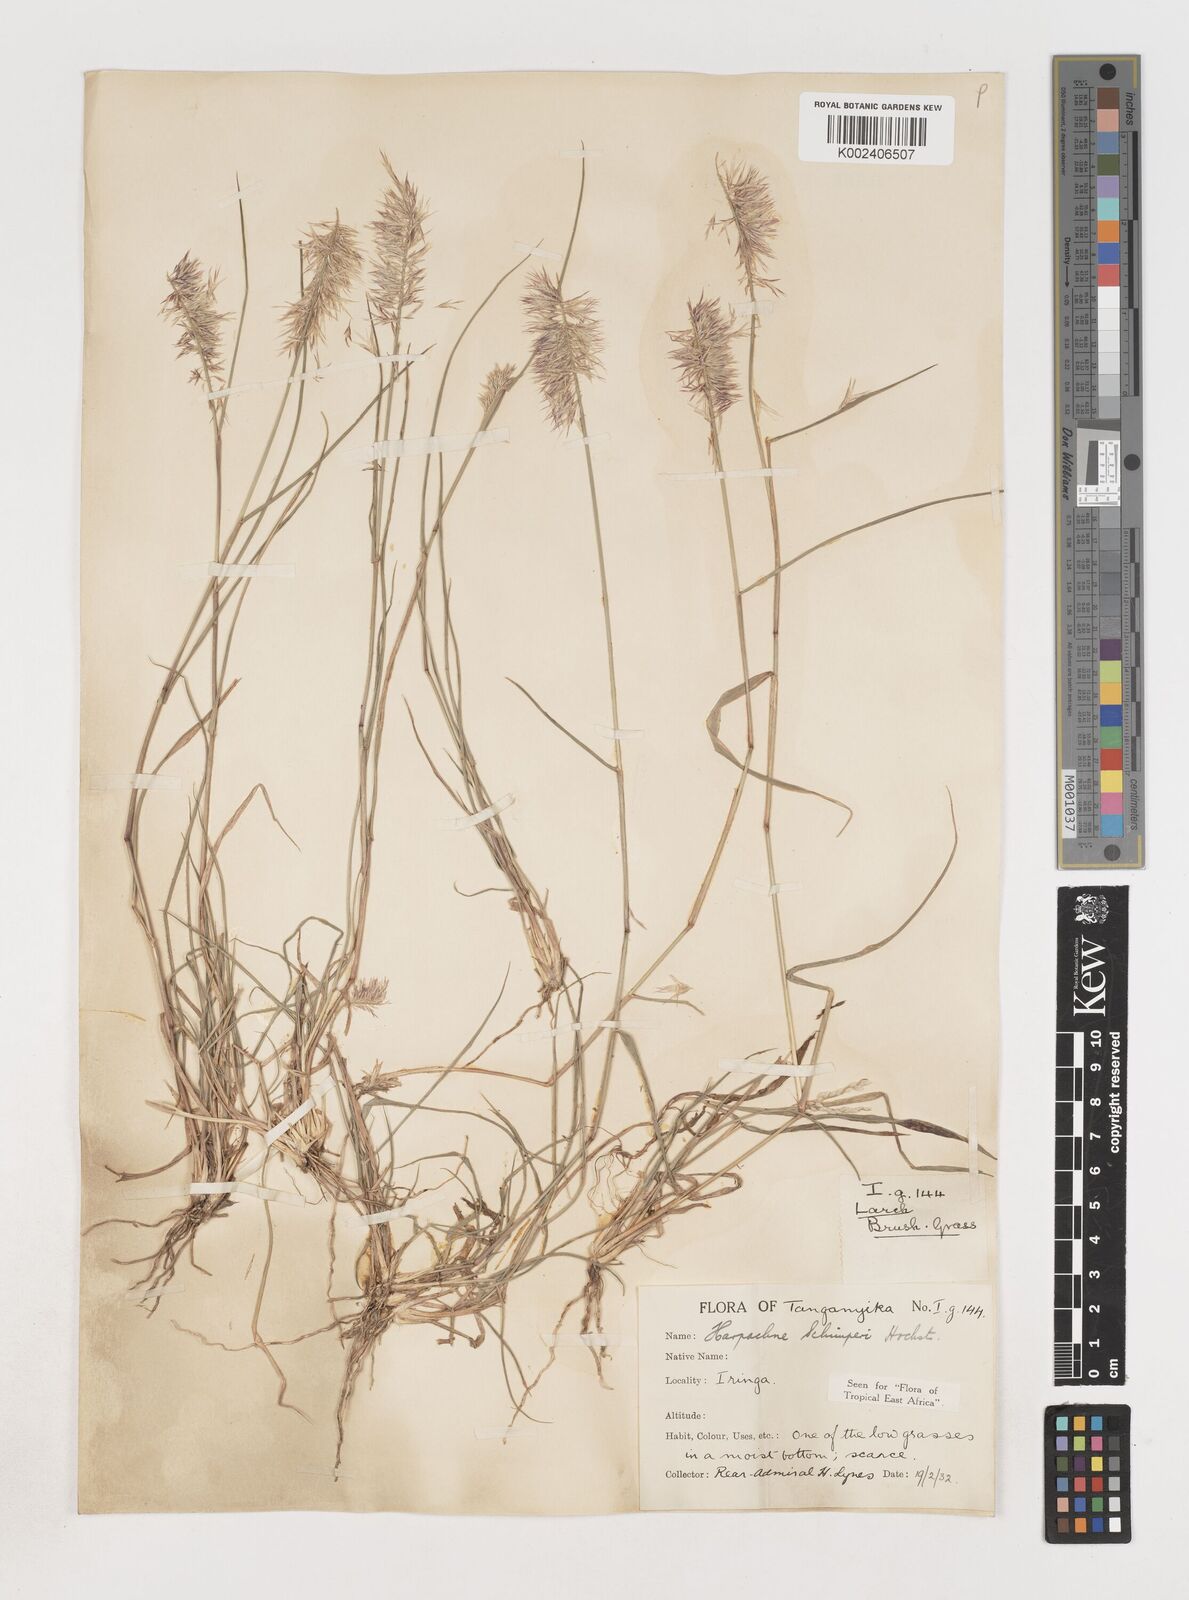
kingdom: Plantae
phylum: Tracheophyta
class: Liliopsida
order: Poales
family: Poaceae
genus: Harpachne
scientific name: Harpachne schimperi
